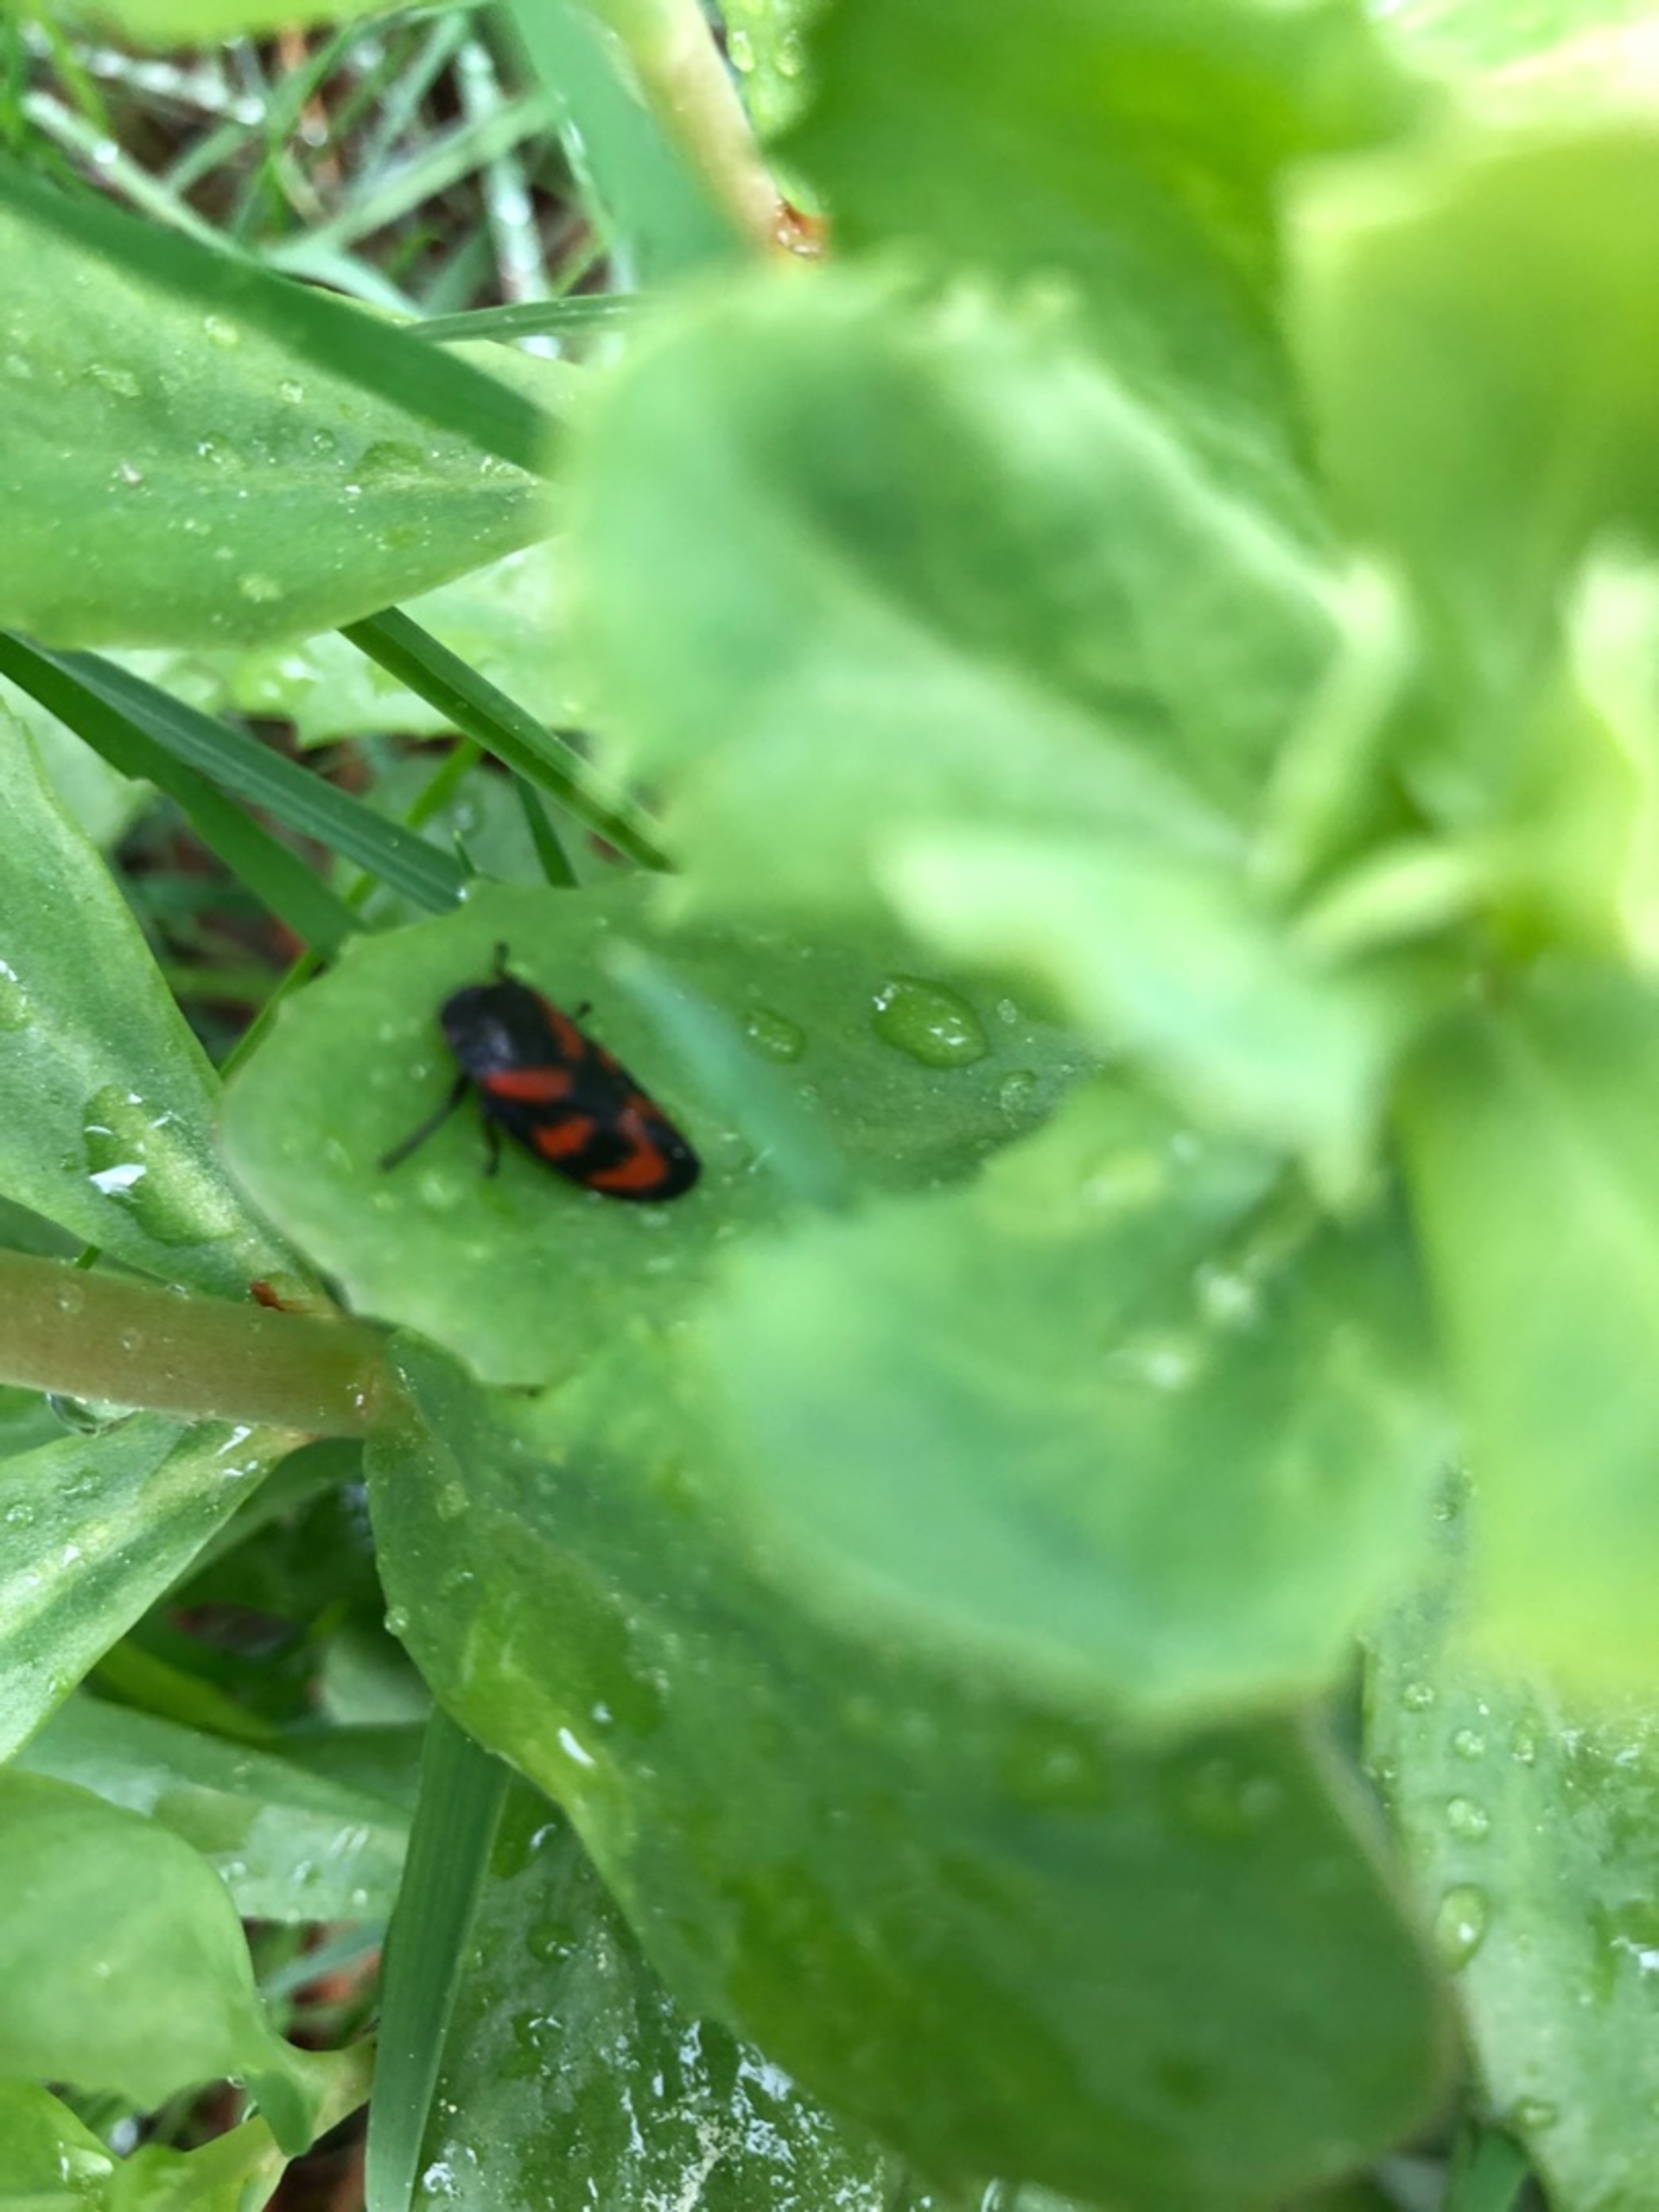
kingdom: Animalia
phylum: Arthropoda
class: Insecta
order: Hemiptera
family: Cercopidae
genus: Cercopis
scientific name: Cercopis vulnerata
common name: Blodcikade
